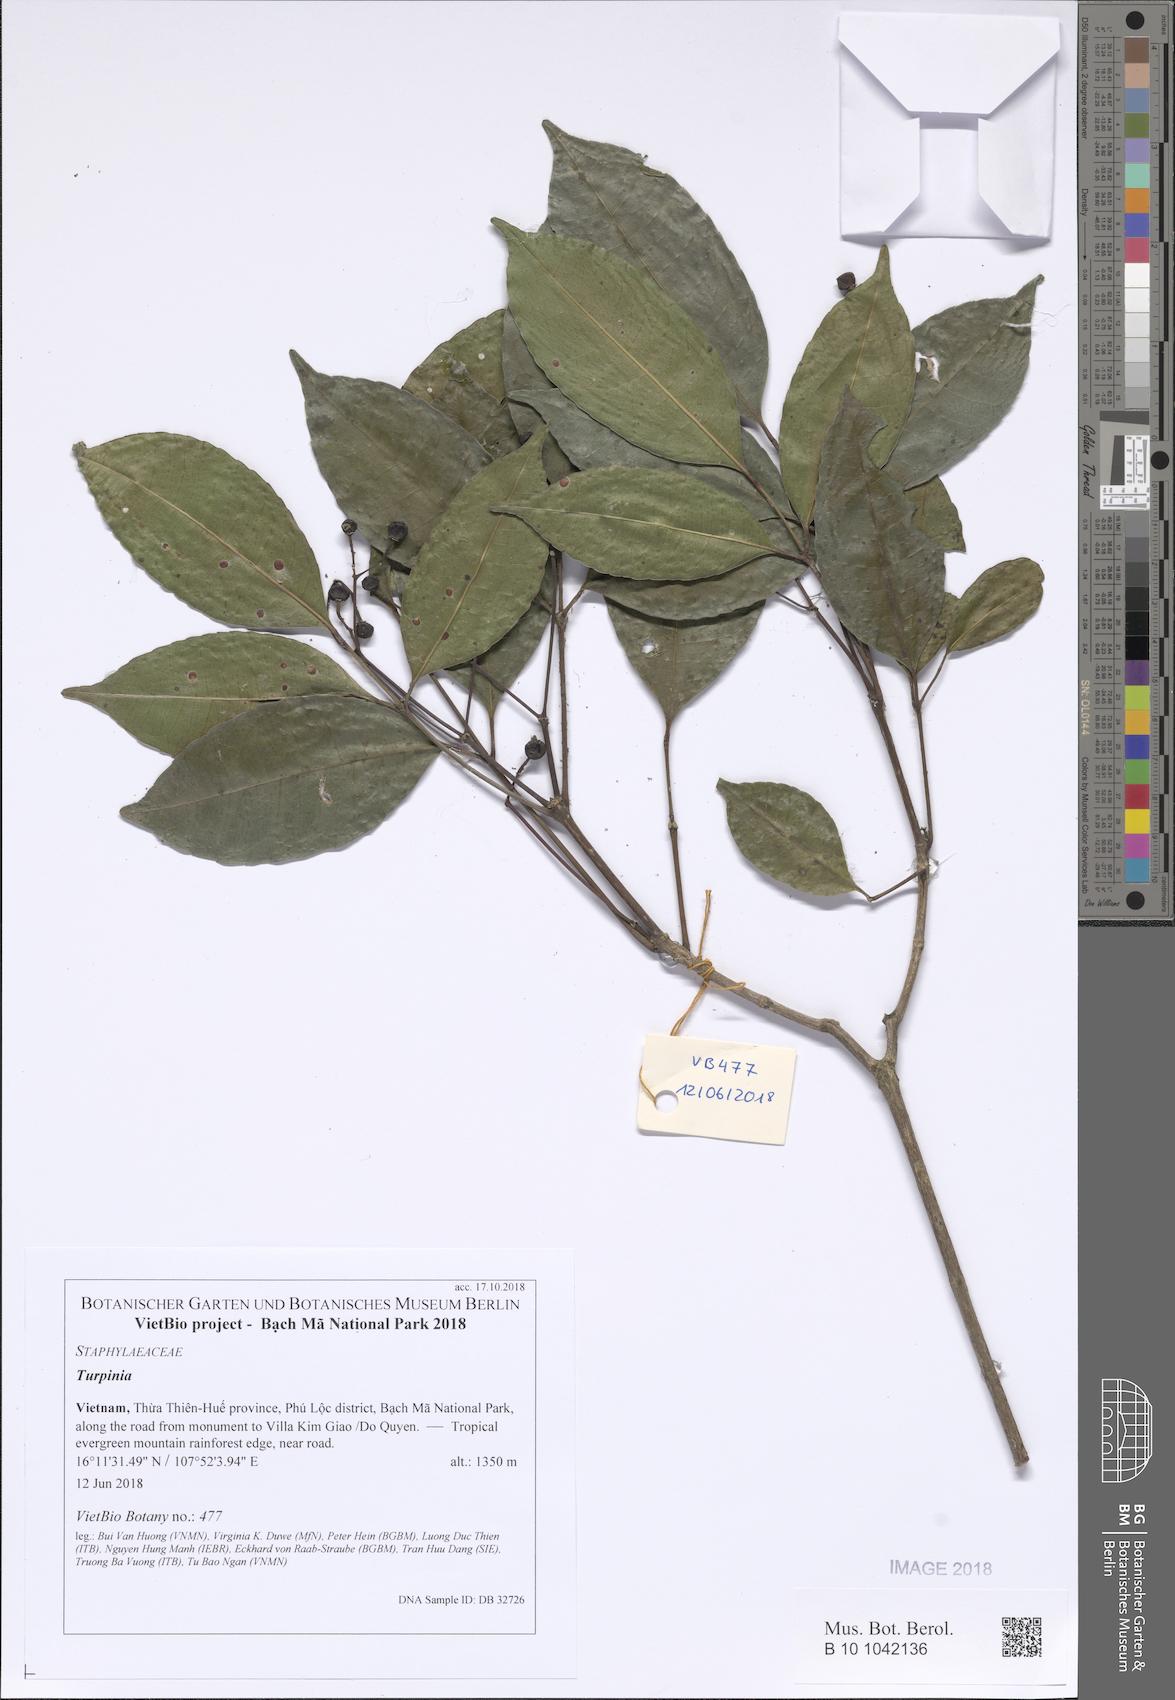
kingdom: Plantae
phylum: Tracheophyta
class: Magnoliopsida
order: Crossosomatales
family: Staphyleaceae
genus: Turpinia
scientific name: Turpinia
